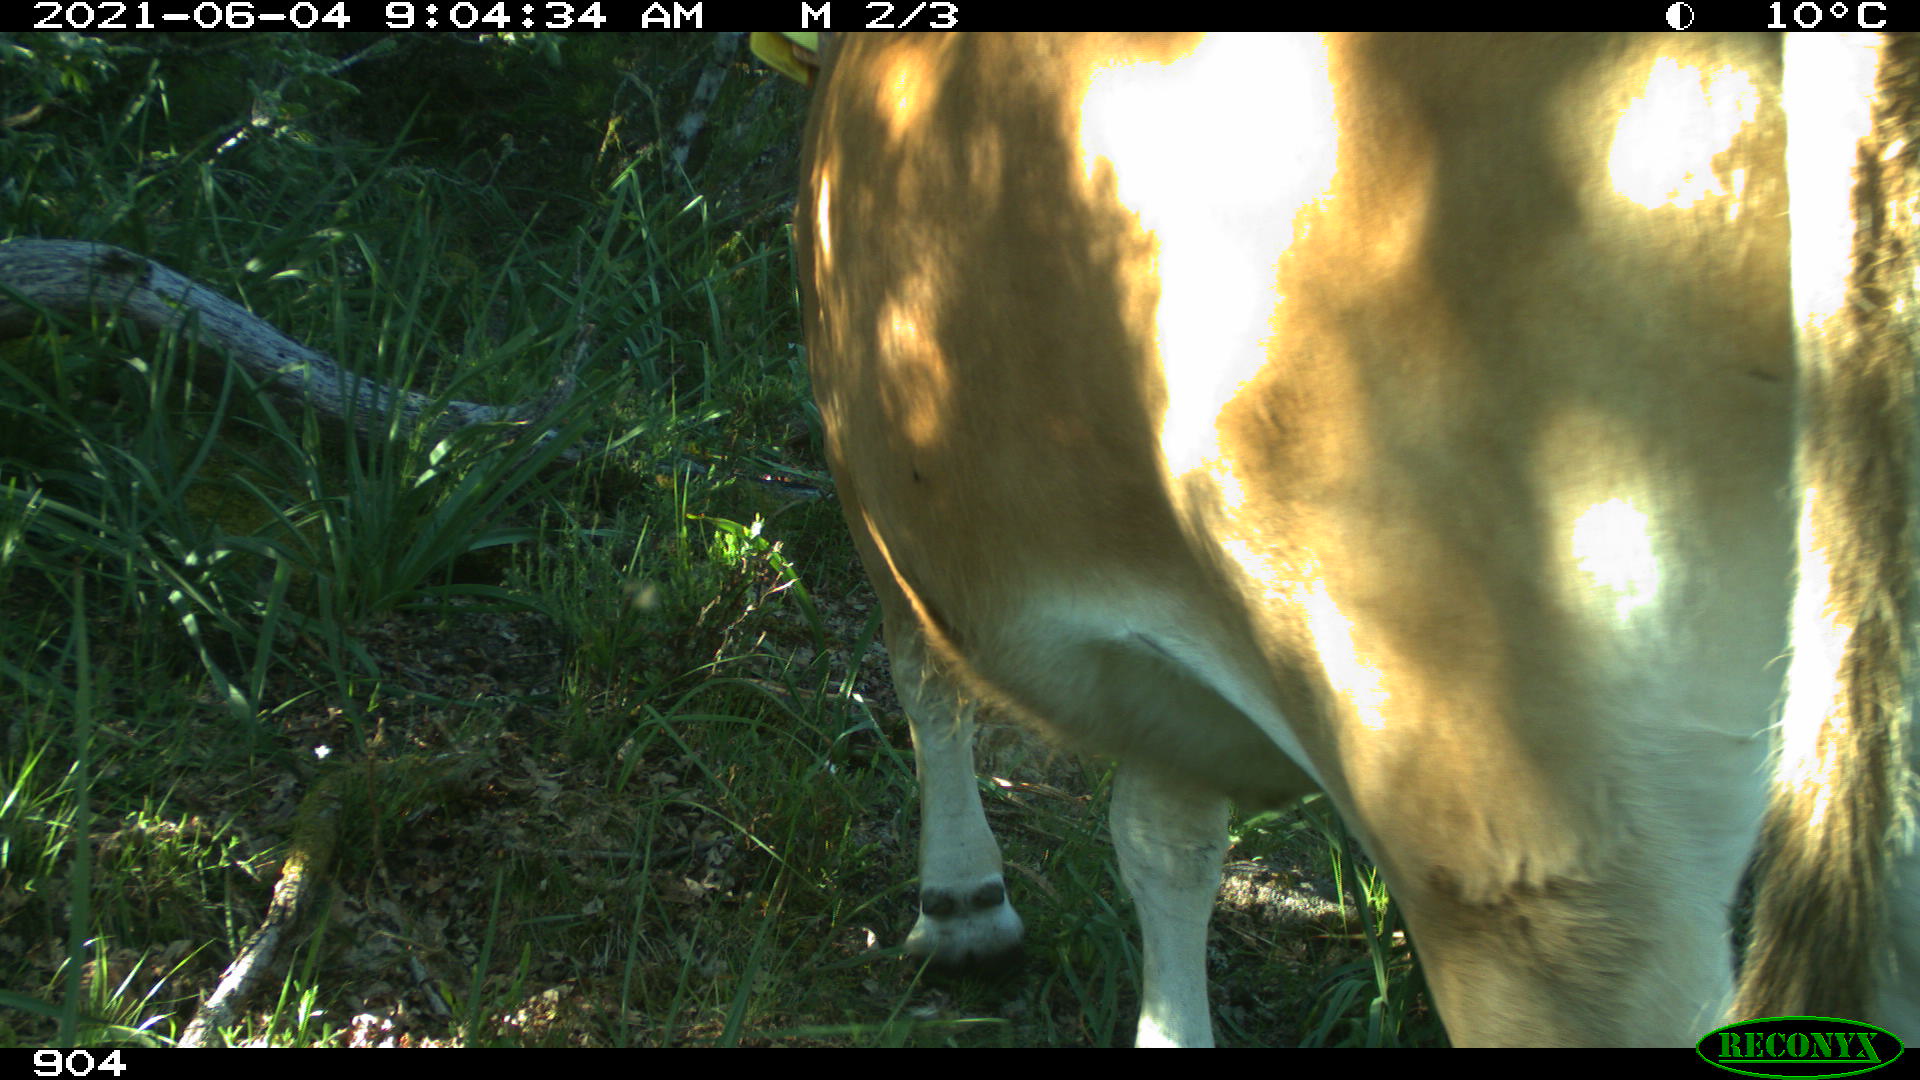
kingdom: Animalia
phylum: Chordata
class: Mammalia
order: Artiodactyla
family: Bovidae
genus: Bos
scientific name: Bos taurus
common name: Domesticated cattle
